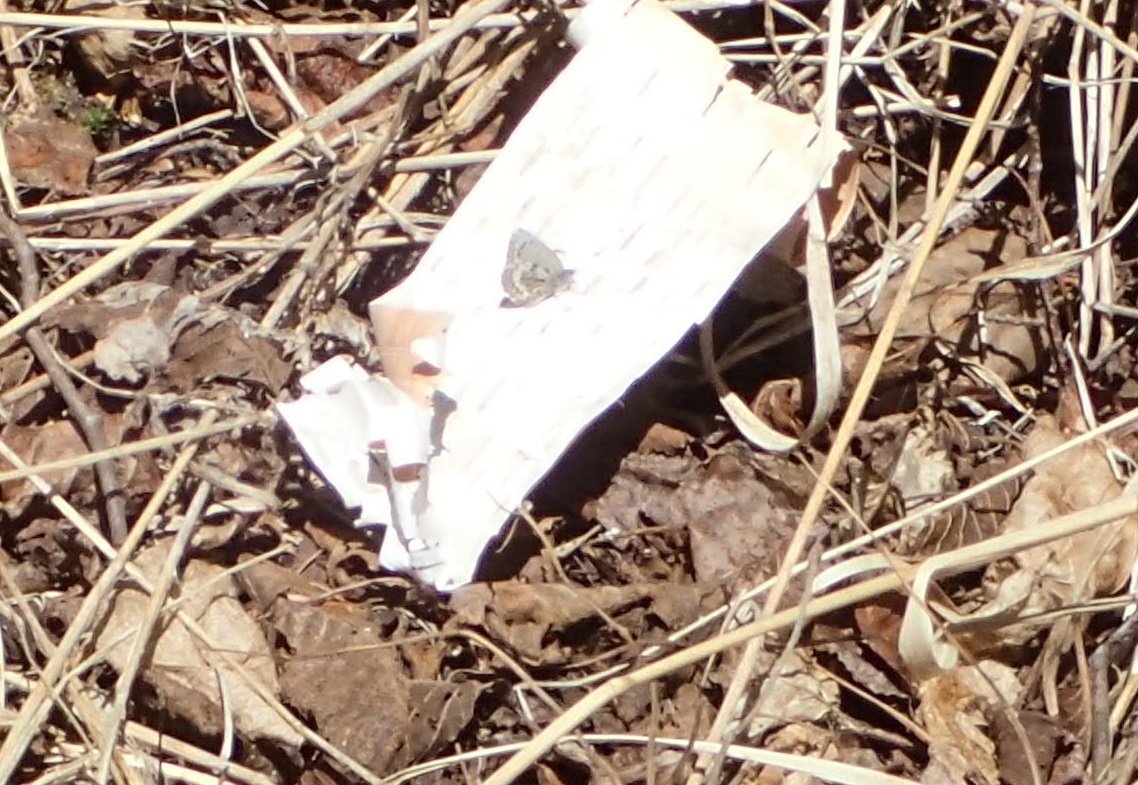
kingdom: Animalia
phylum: Arthropoda
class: Insecta
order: Lepidoptera
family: Lycaenidae
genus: Celastrina
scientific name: Celastrina lucia
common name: Northern Spring Azure
